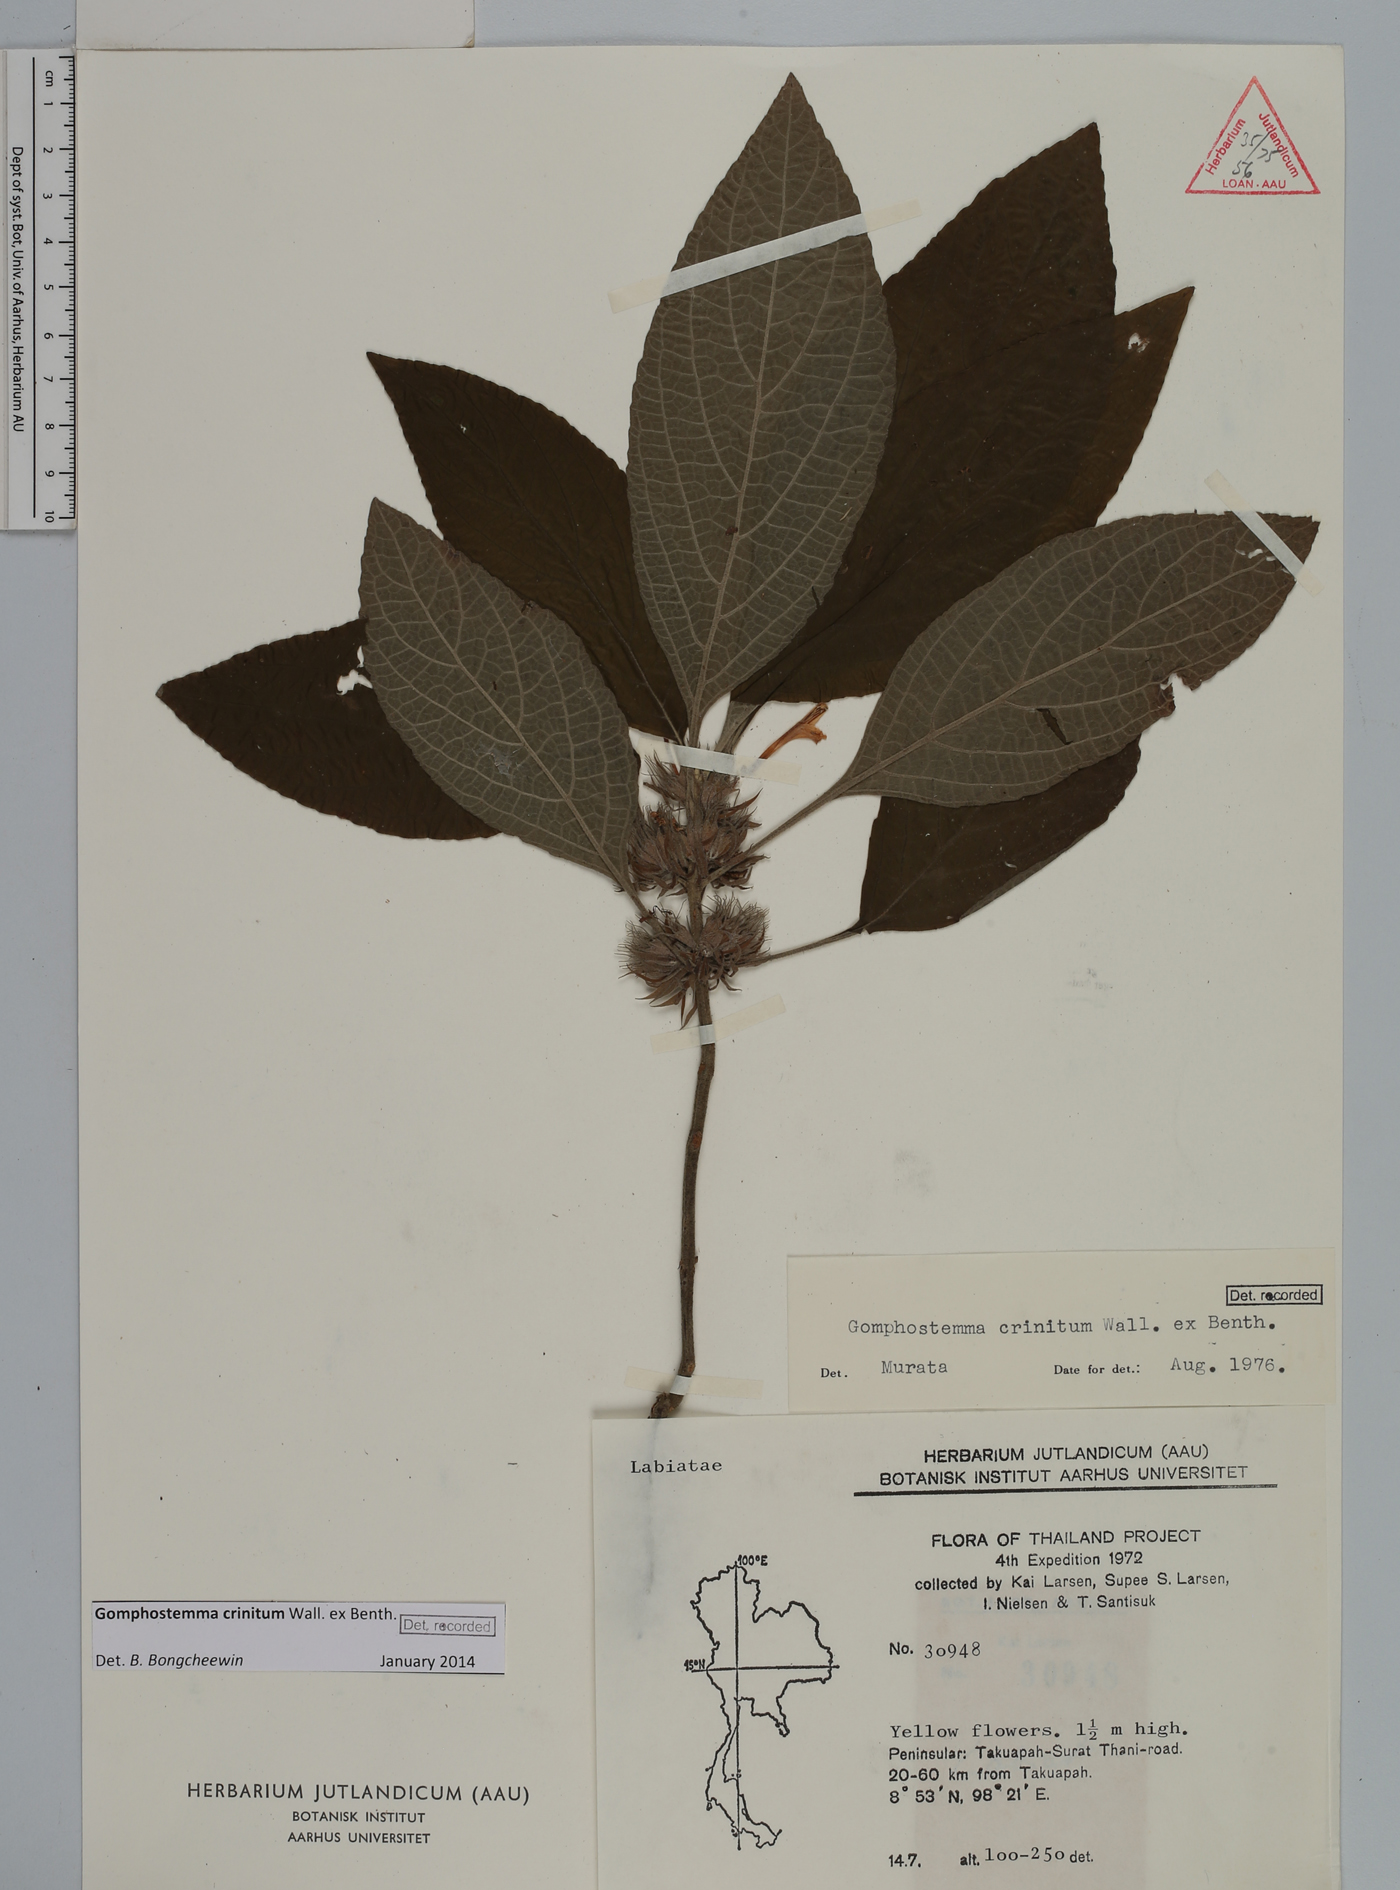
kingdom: Plantae
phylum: Tracheophyta
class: Magnoliopsida
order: Lamiales
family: Lamiaceae
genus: Gomphostemma
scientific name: Gomphostemma crinitum
